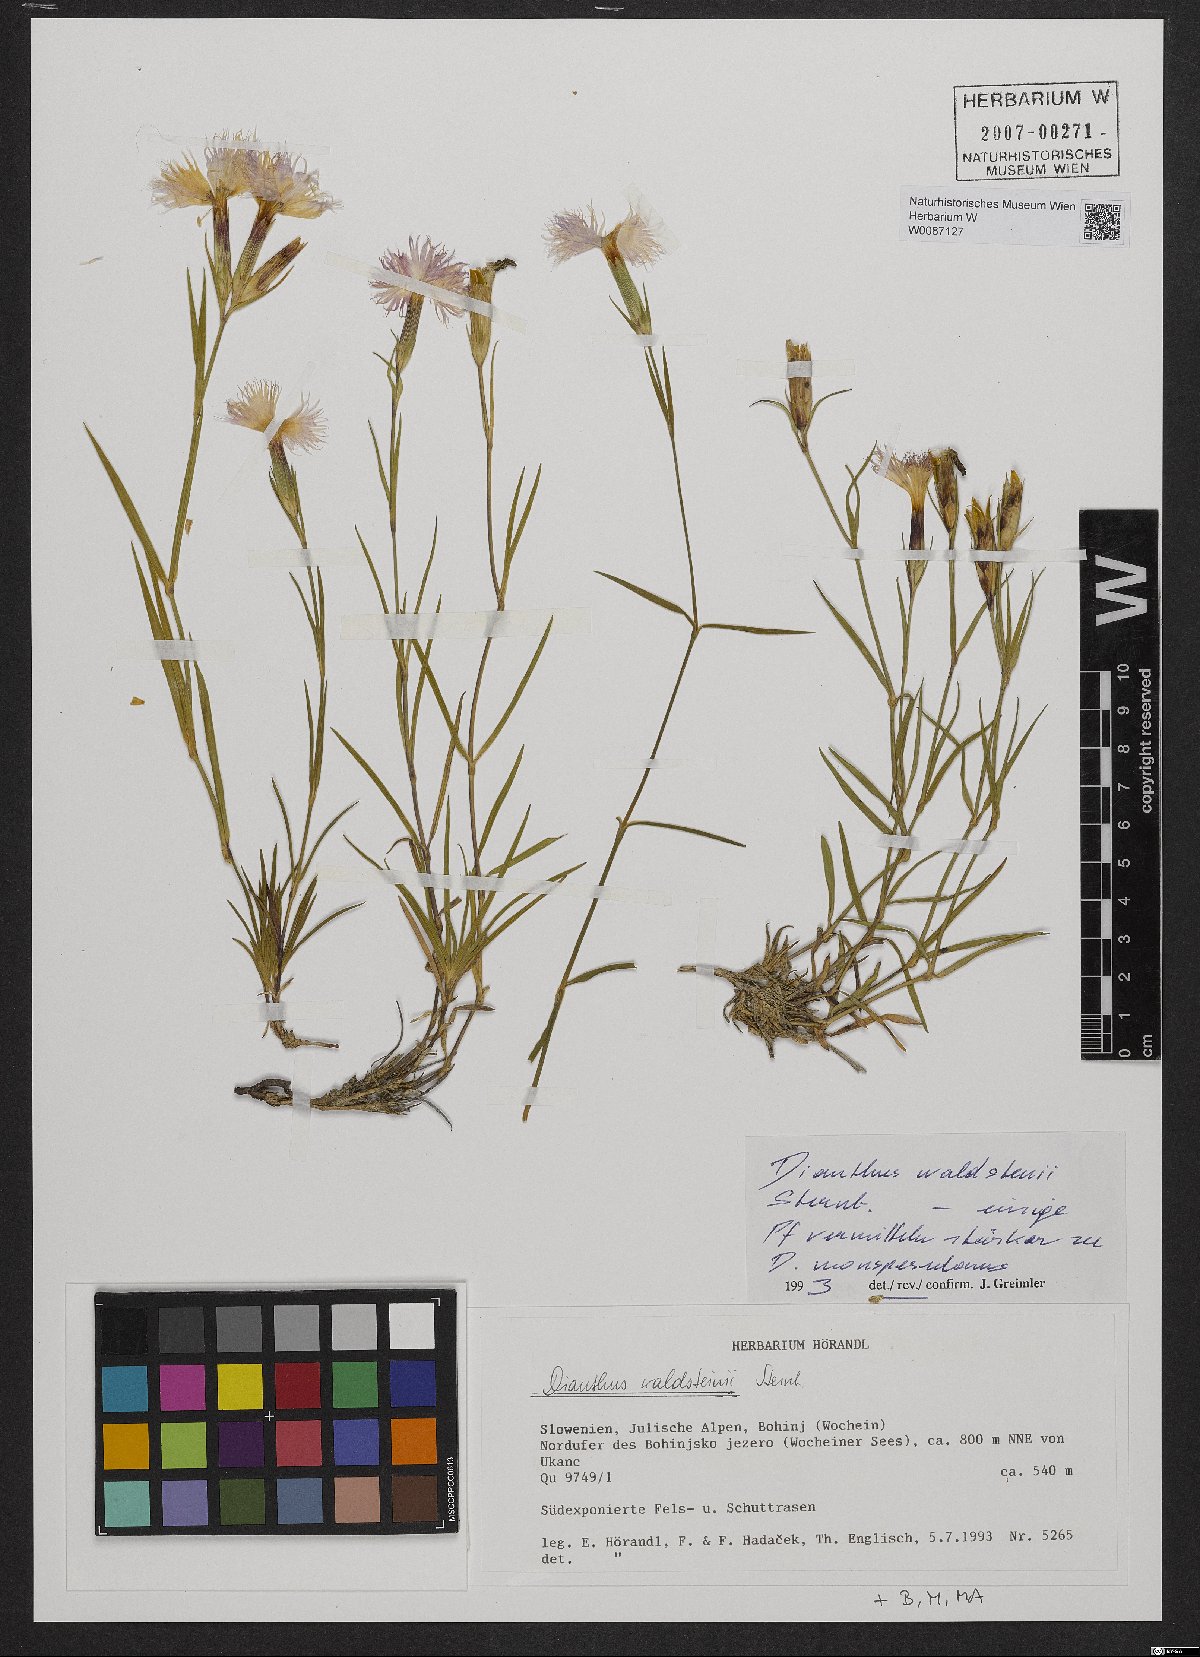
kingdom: Plantae
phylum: Tracheophyta
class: Magnoliopsida
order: Caryophyllales
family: Caryophyllaceae
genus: Dianthus
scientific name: Dianthus sternbergii
